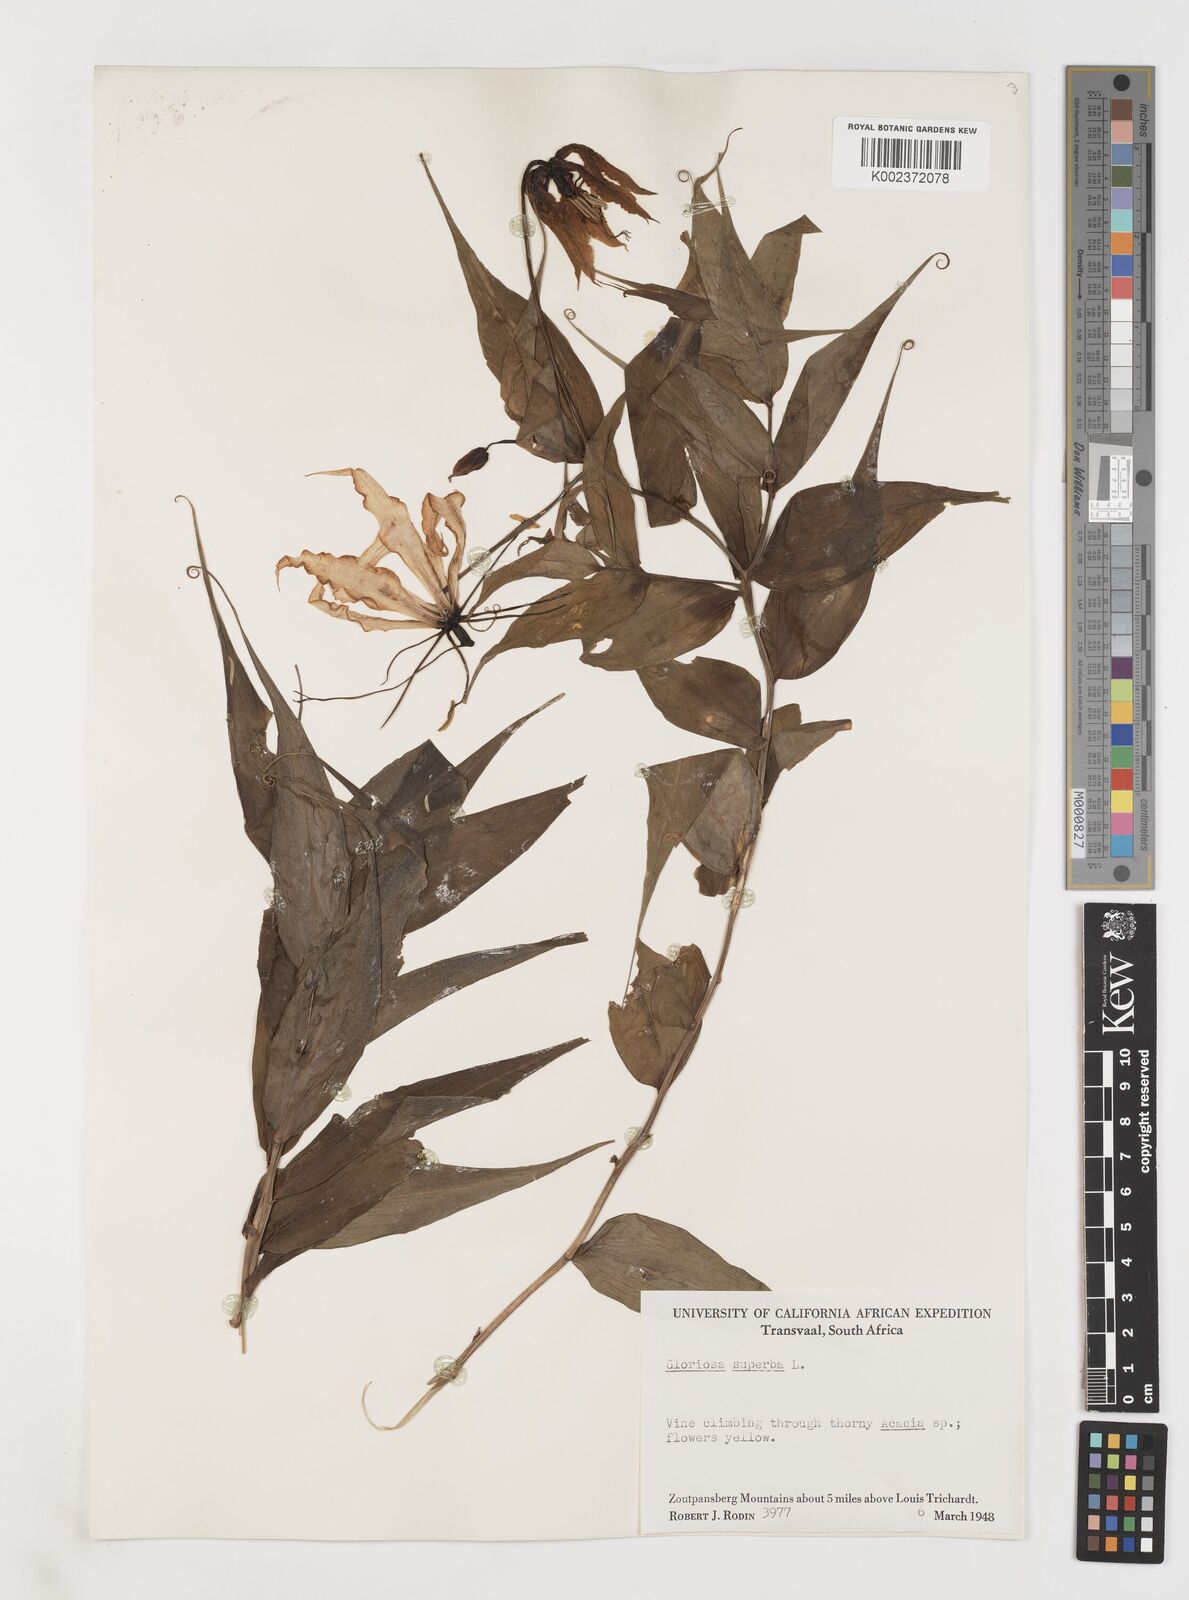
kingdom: Plantae
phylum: Tracheophyta
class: Liliopsida
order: Liliales
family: Colchicaceae
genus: Gloriosa
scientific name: Gloriosa simplex
